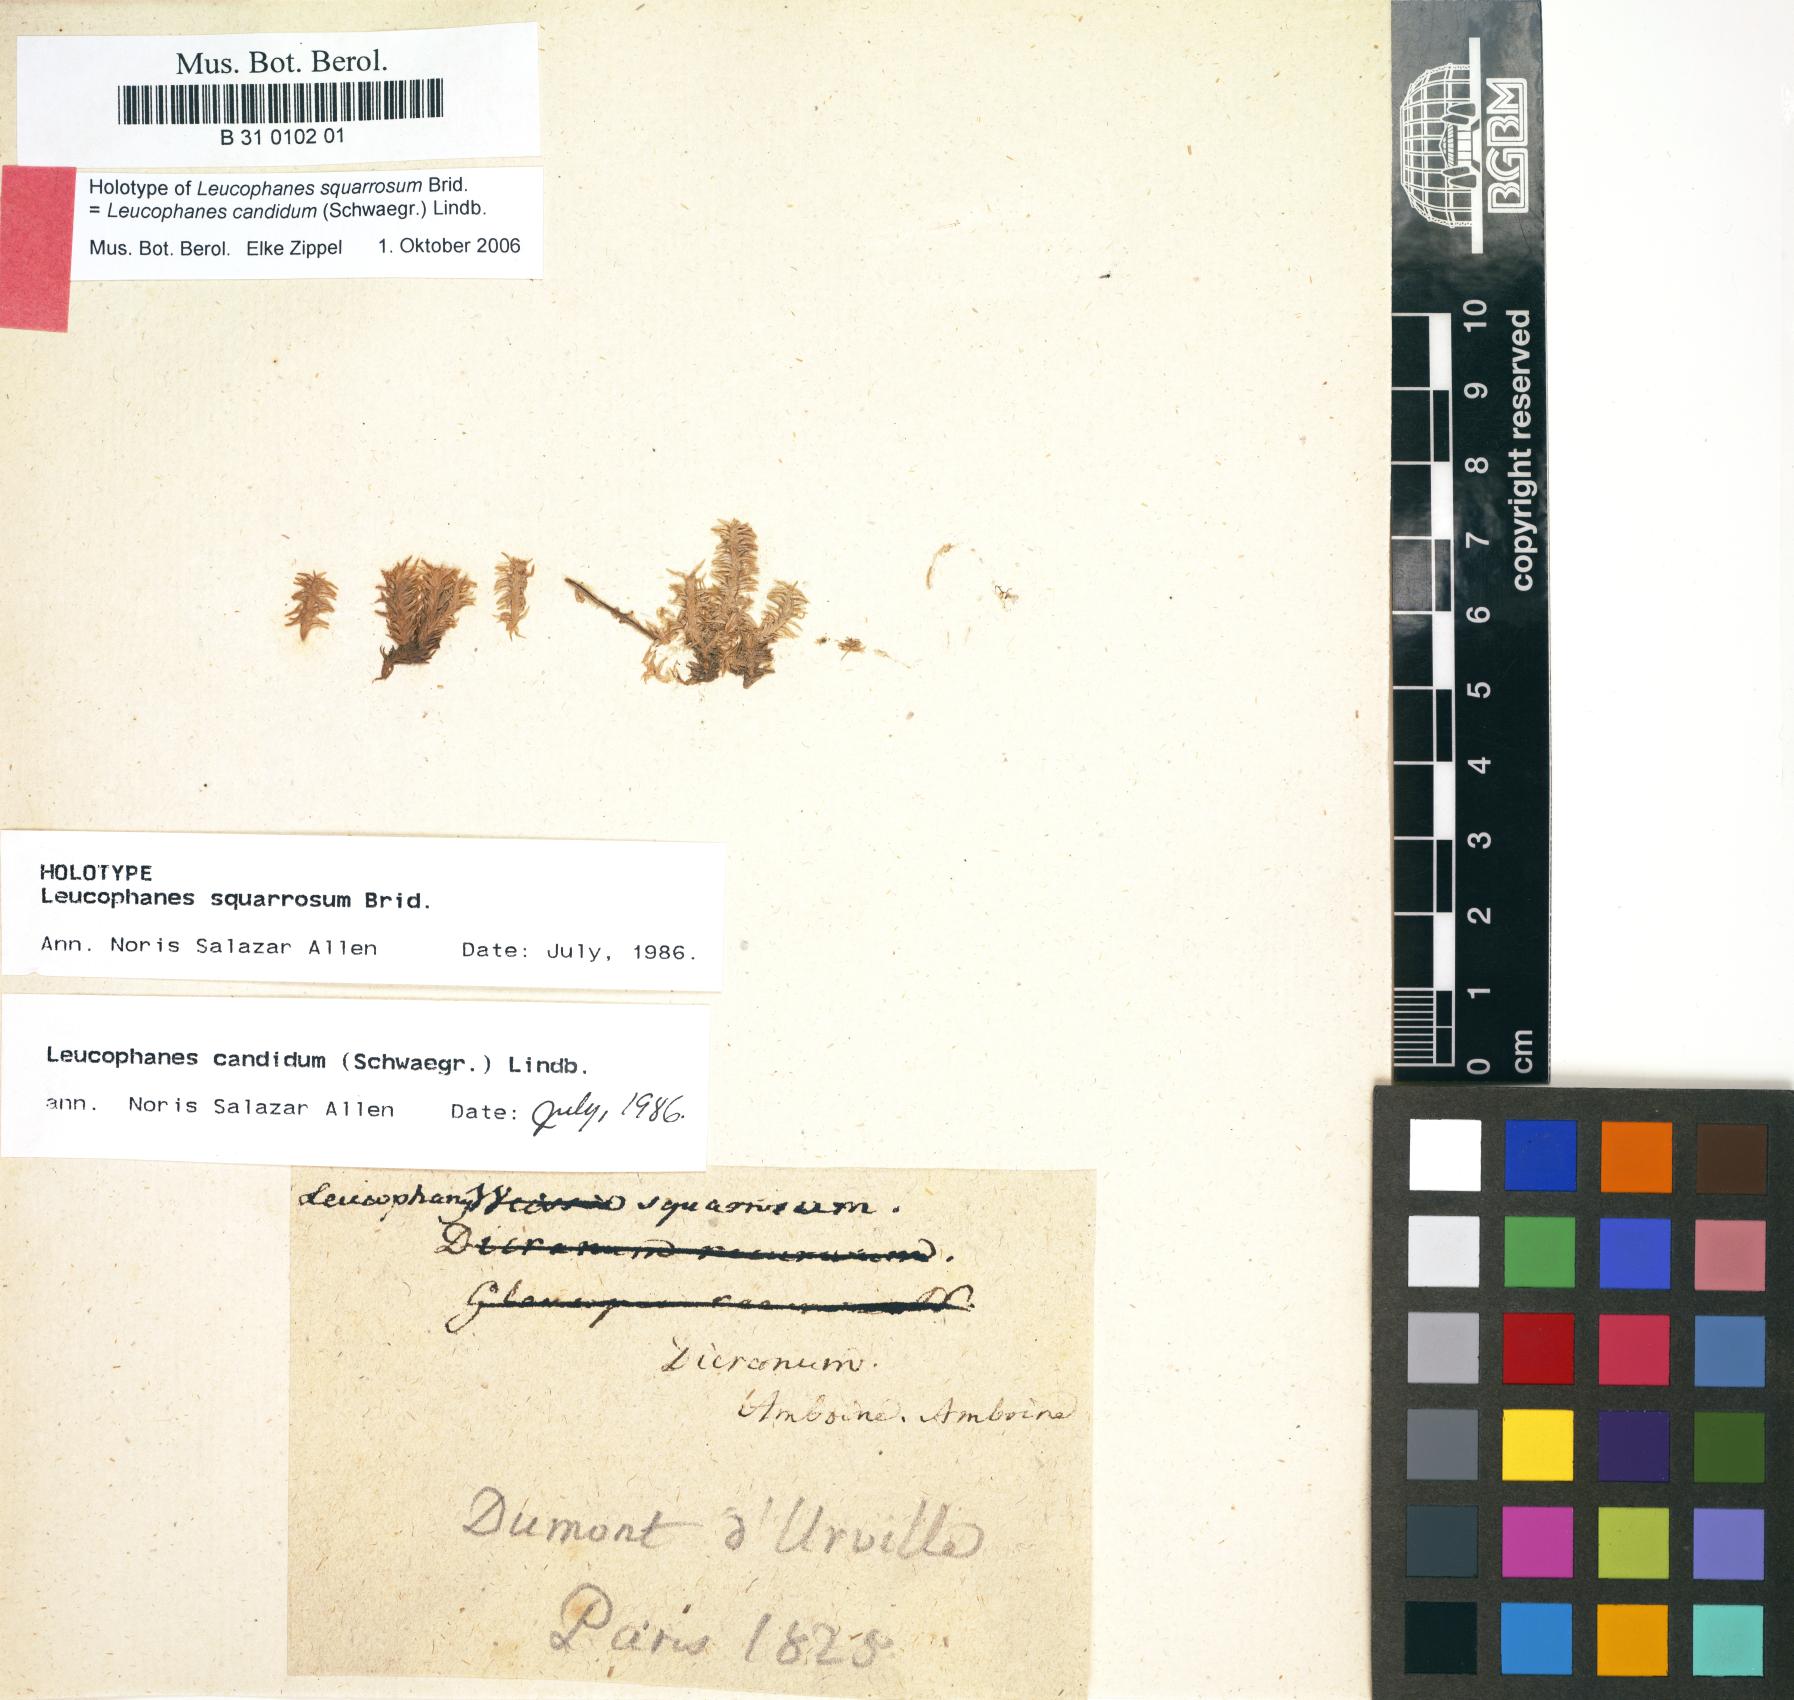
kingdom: Plantae
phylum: Bryophyta
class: Bryopsida
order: Dicranales
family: Calymperaceae
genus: Leucophanes
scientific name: Leucophanes candidum
